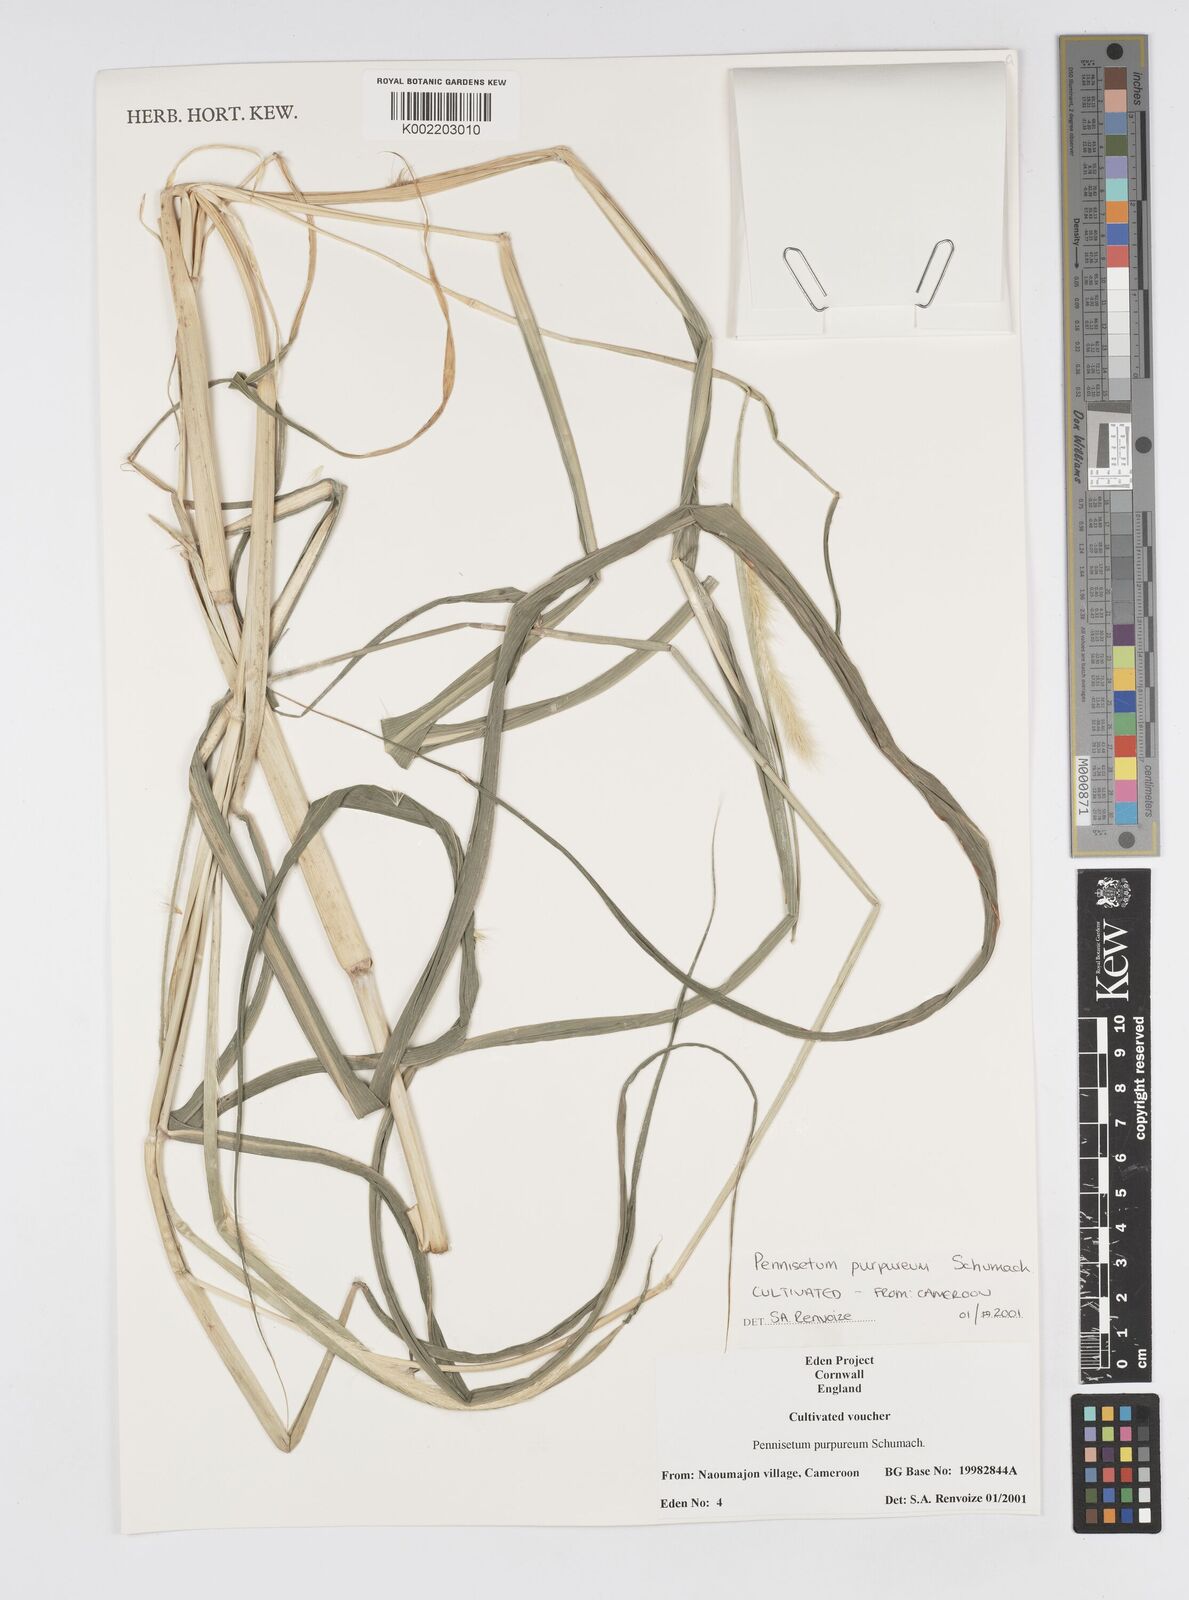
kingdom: Plantae
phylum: Tracheophyta
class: Liliopsida
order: Poales
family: Poaceae
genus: Cenchrus
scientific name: Cenchrus purpureus
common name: Elephant grass
